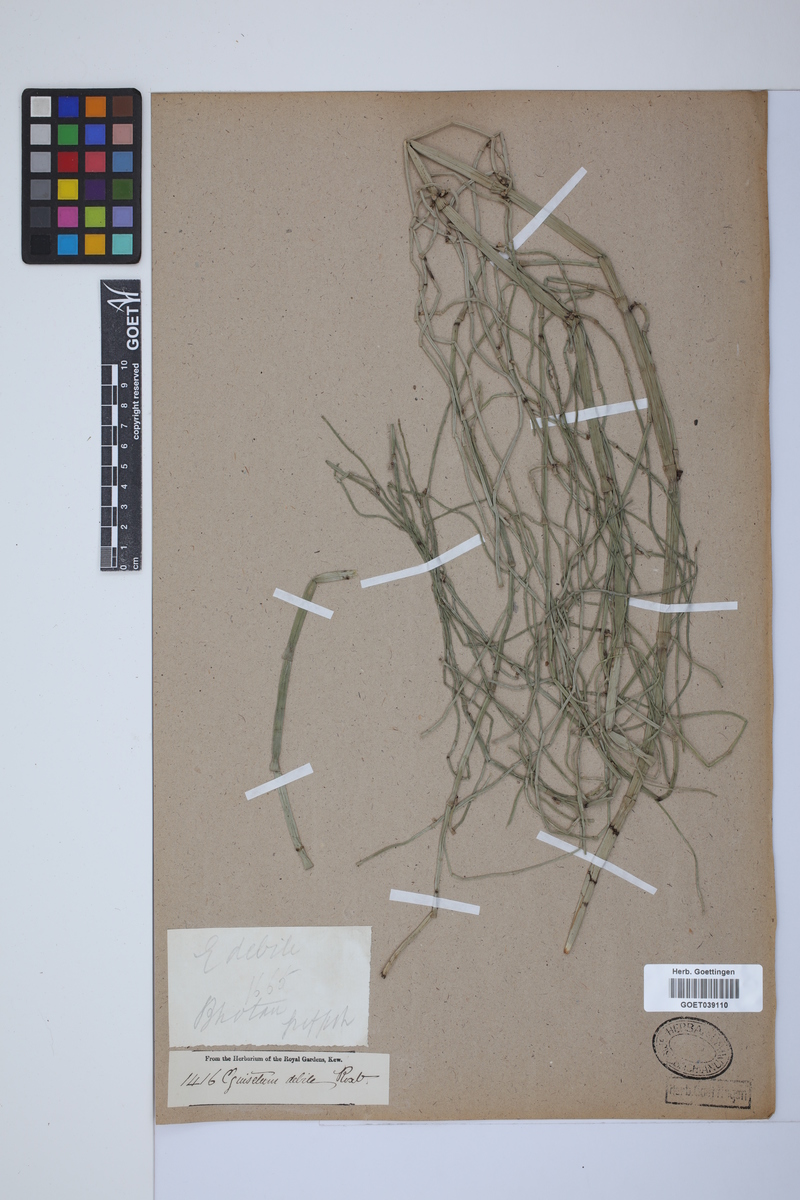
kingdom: Plantae
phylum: Tracheophyta
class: Polypodiopsida
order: Equisetales
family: Equisetaceae
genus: Equisetum
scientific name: Equisetum ramosissimum
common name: Branched horsetail
